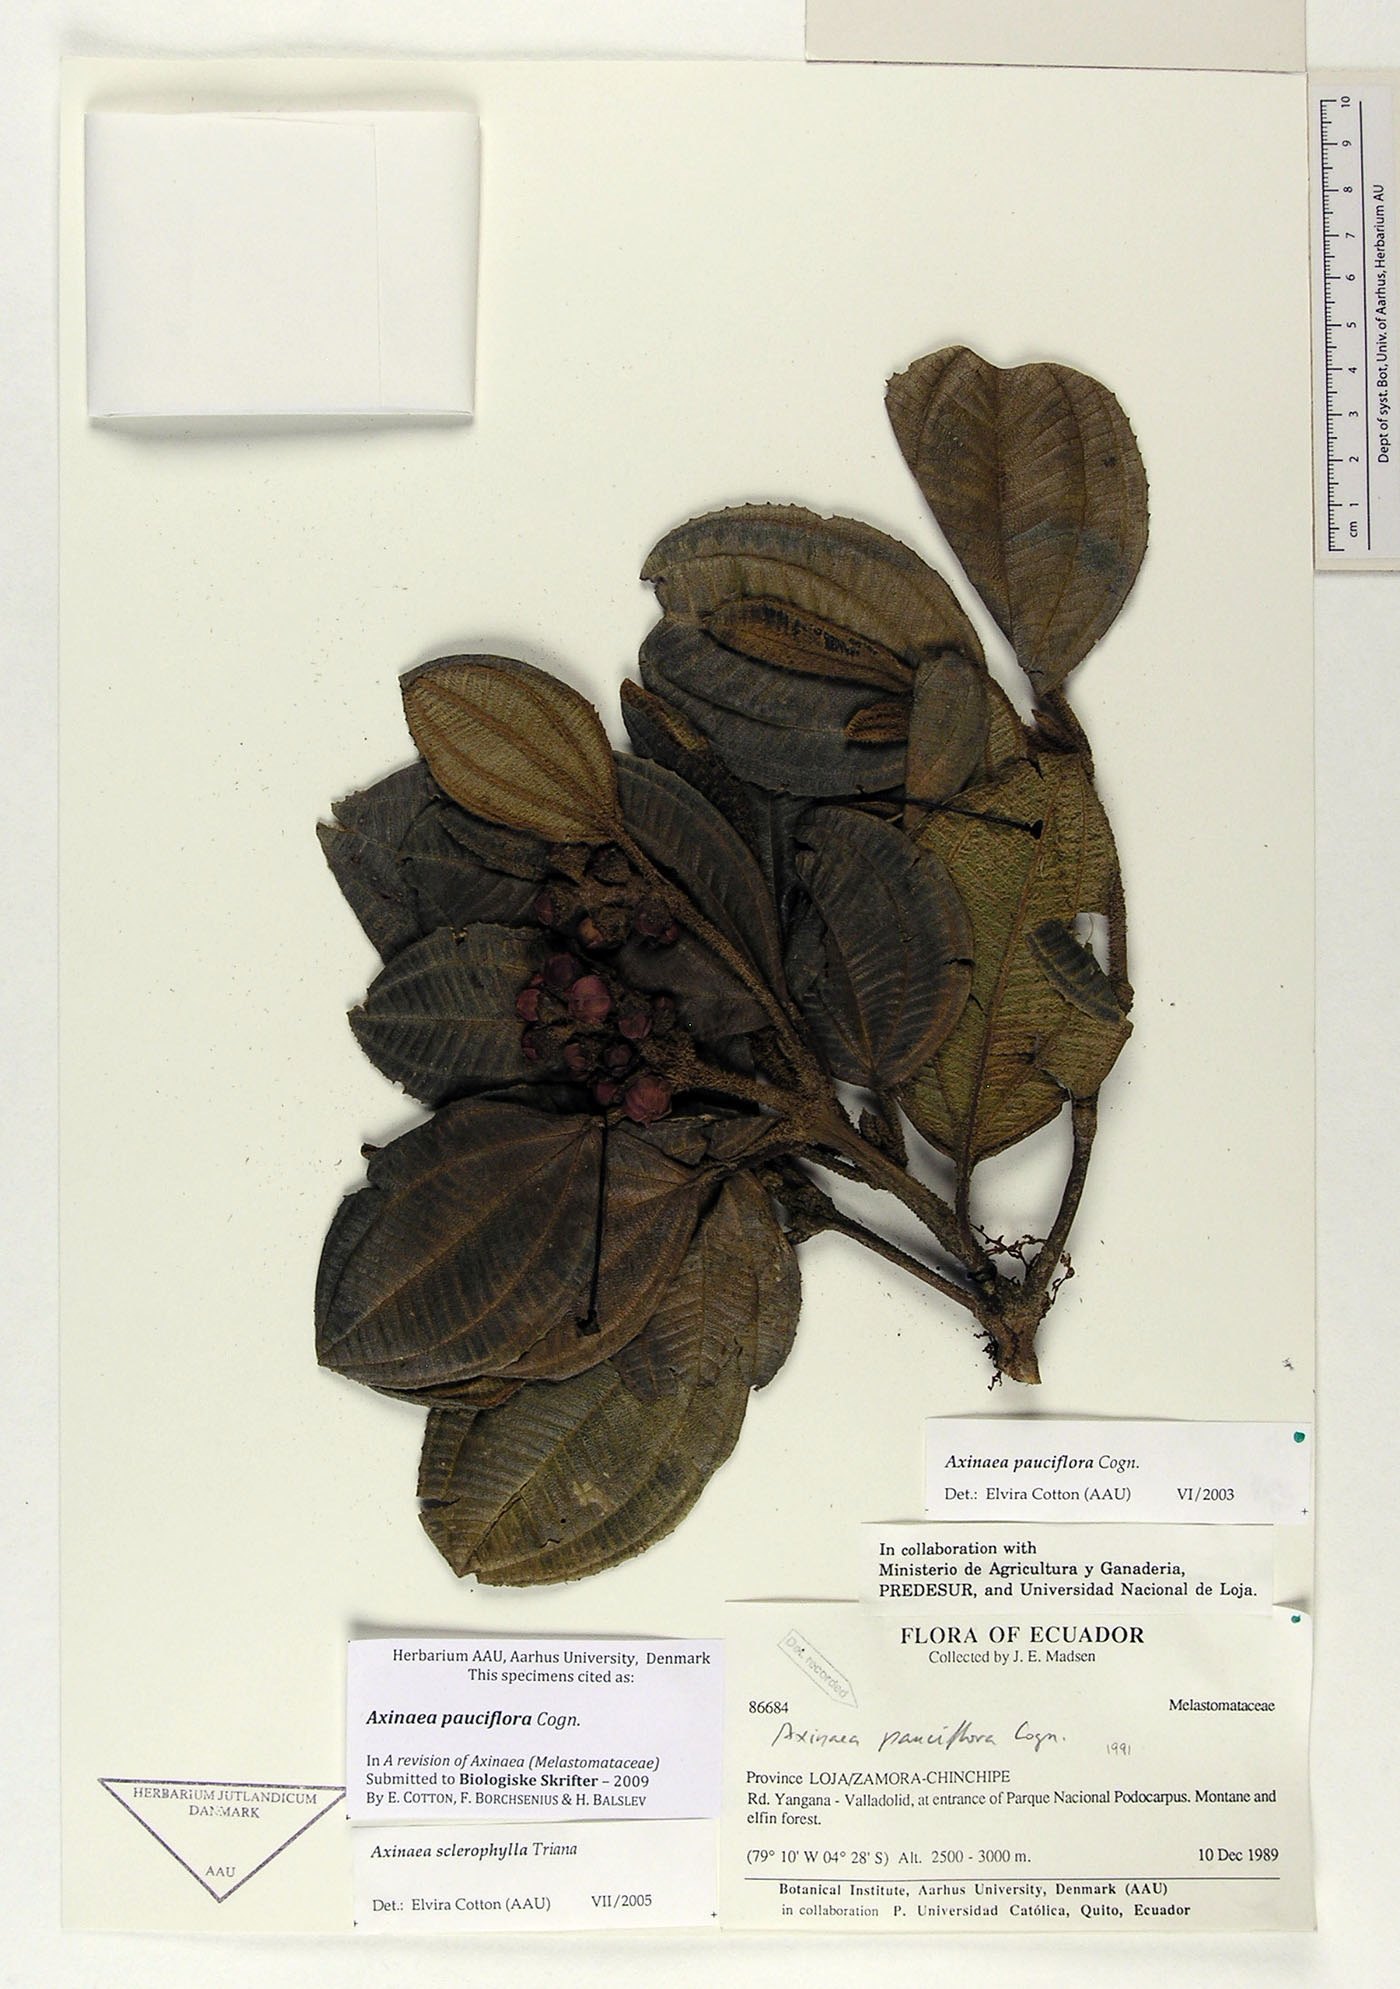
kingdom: Plantae
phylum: Tracheophyta
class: Magnoliopsida
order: Myrtales
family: Melastomataceae
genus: Axinaea
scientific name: Axinaea pauciflora
